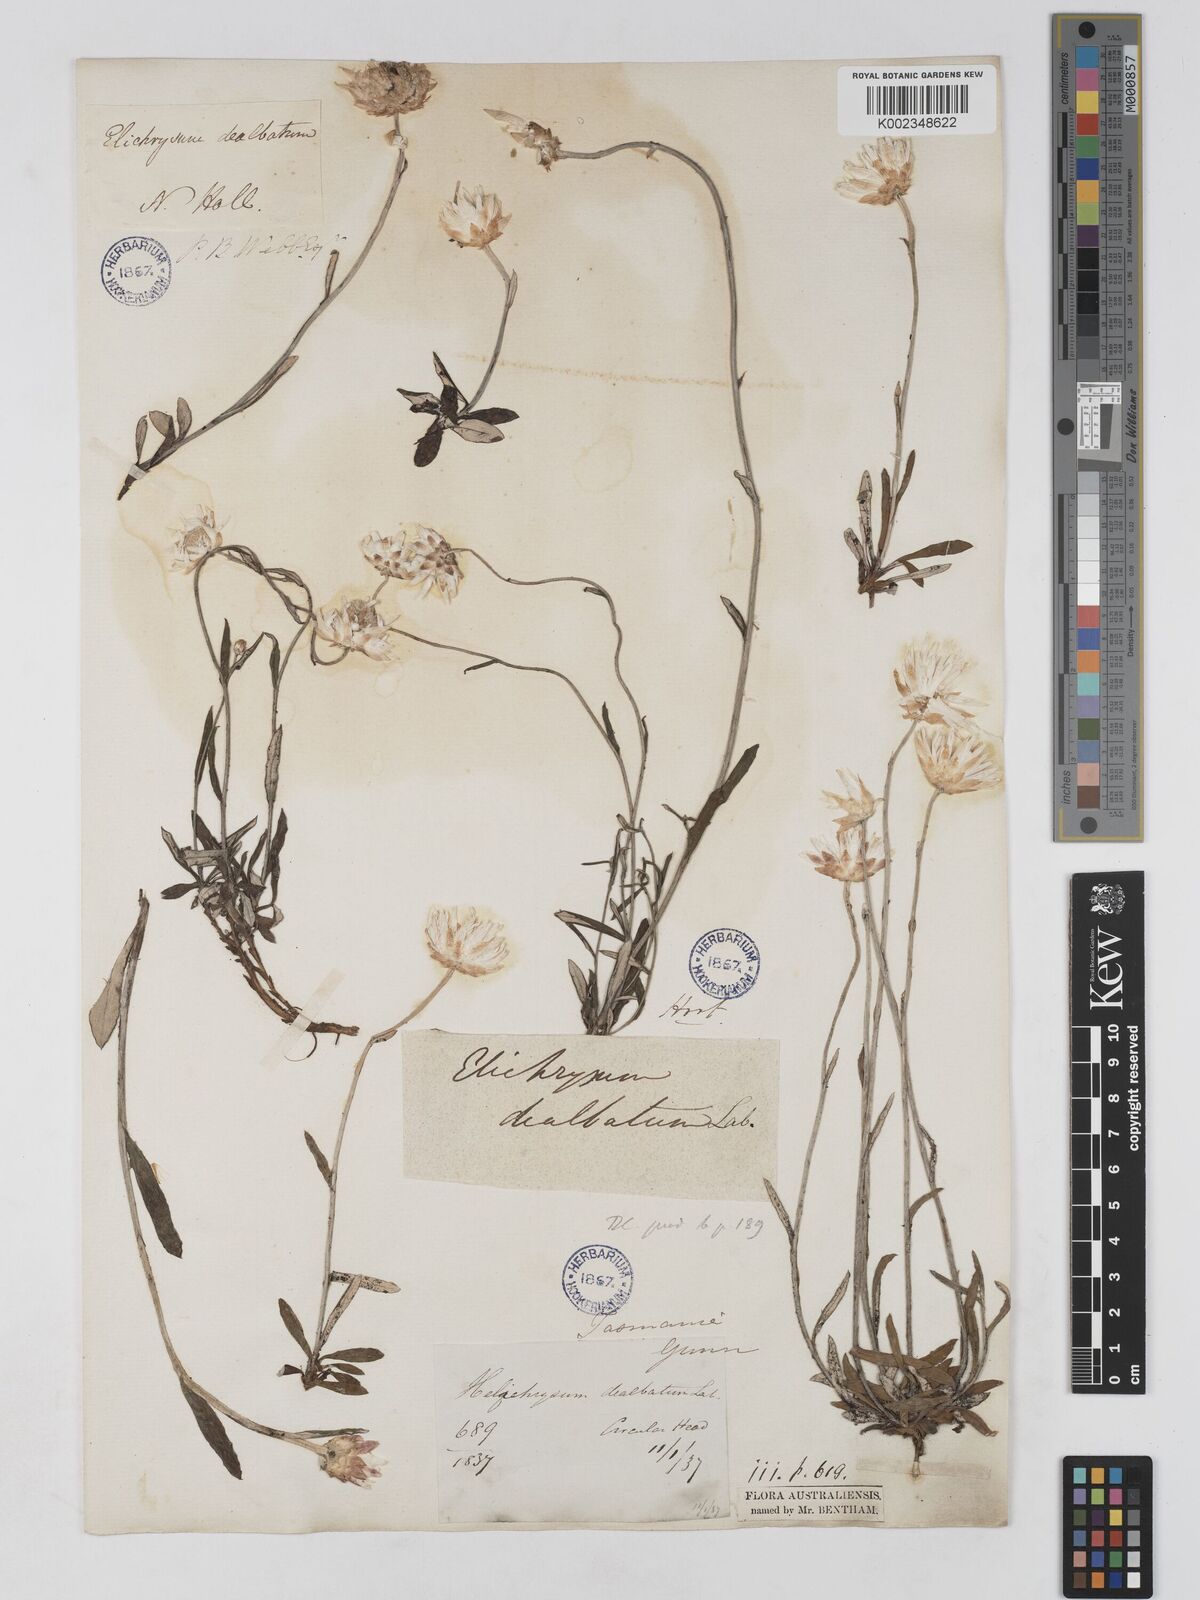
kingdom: Plantae
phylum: Tracheophyta
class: Magnoliopsida
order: Asterales
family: Asteraceae
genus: Argentipallium
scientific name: Argentipallium dealbatum
